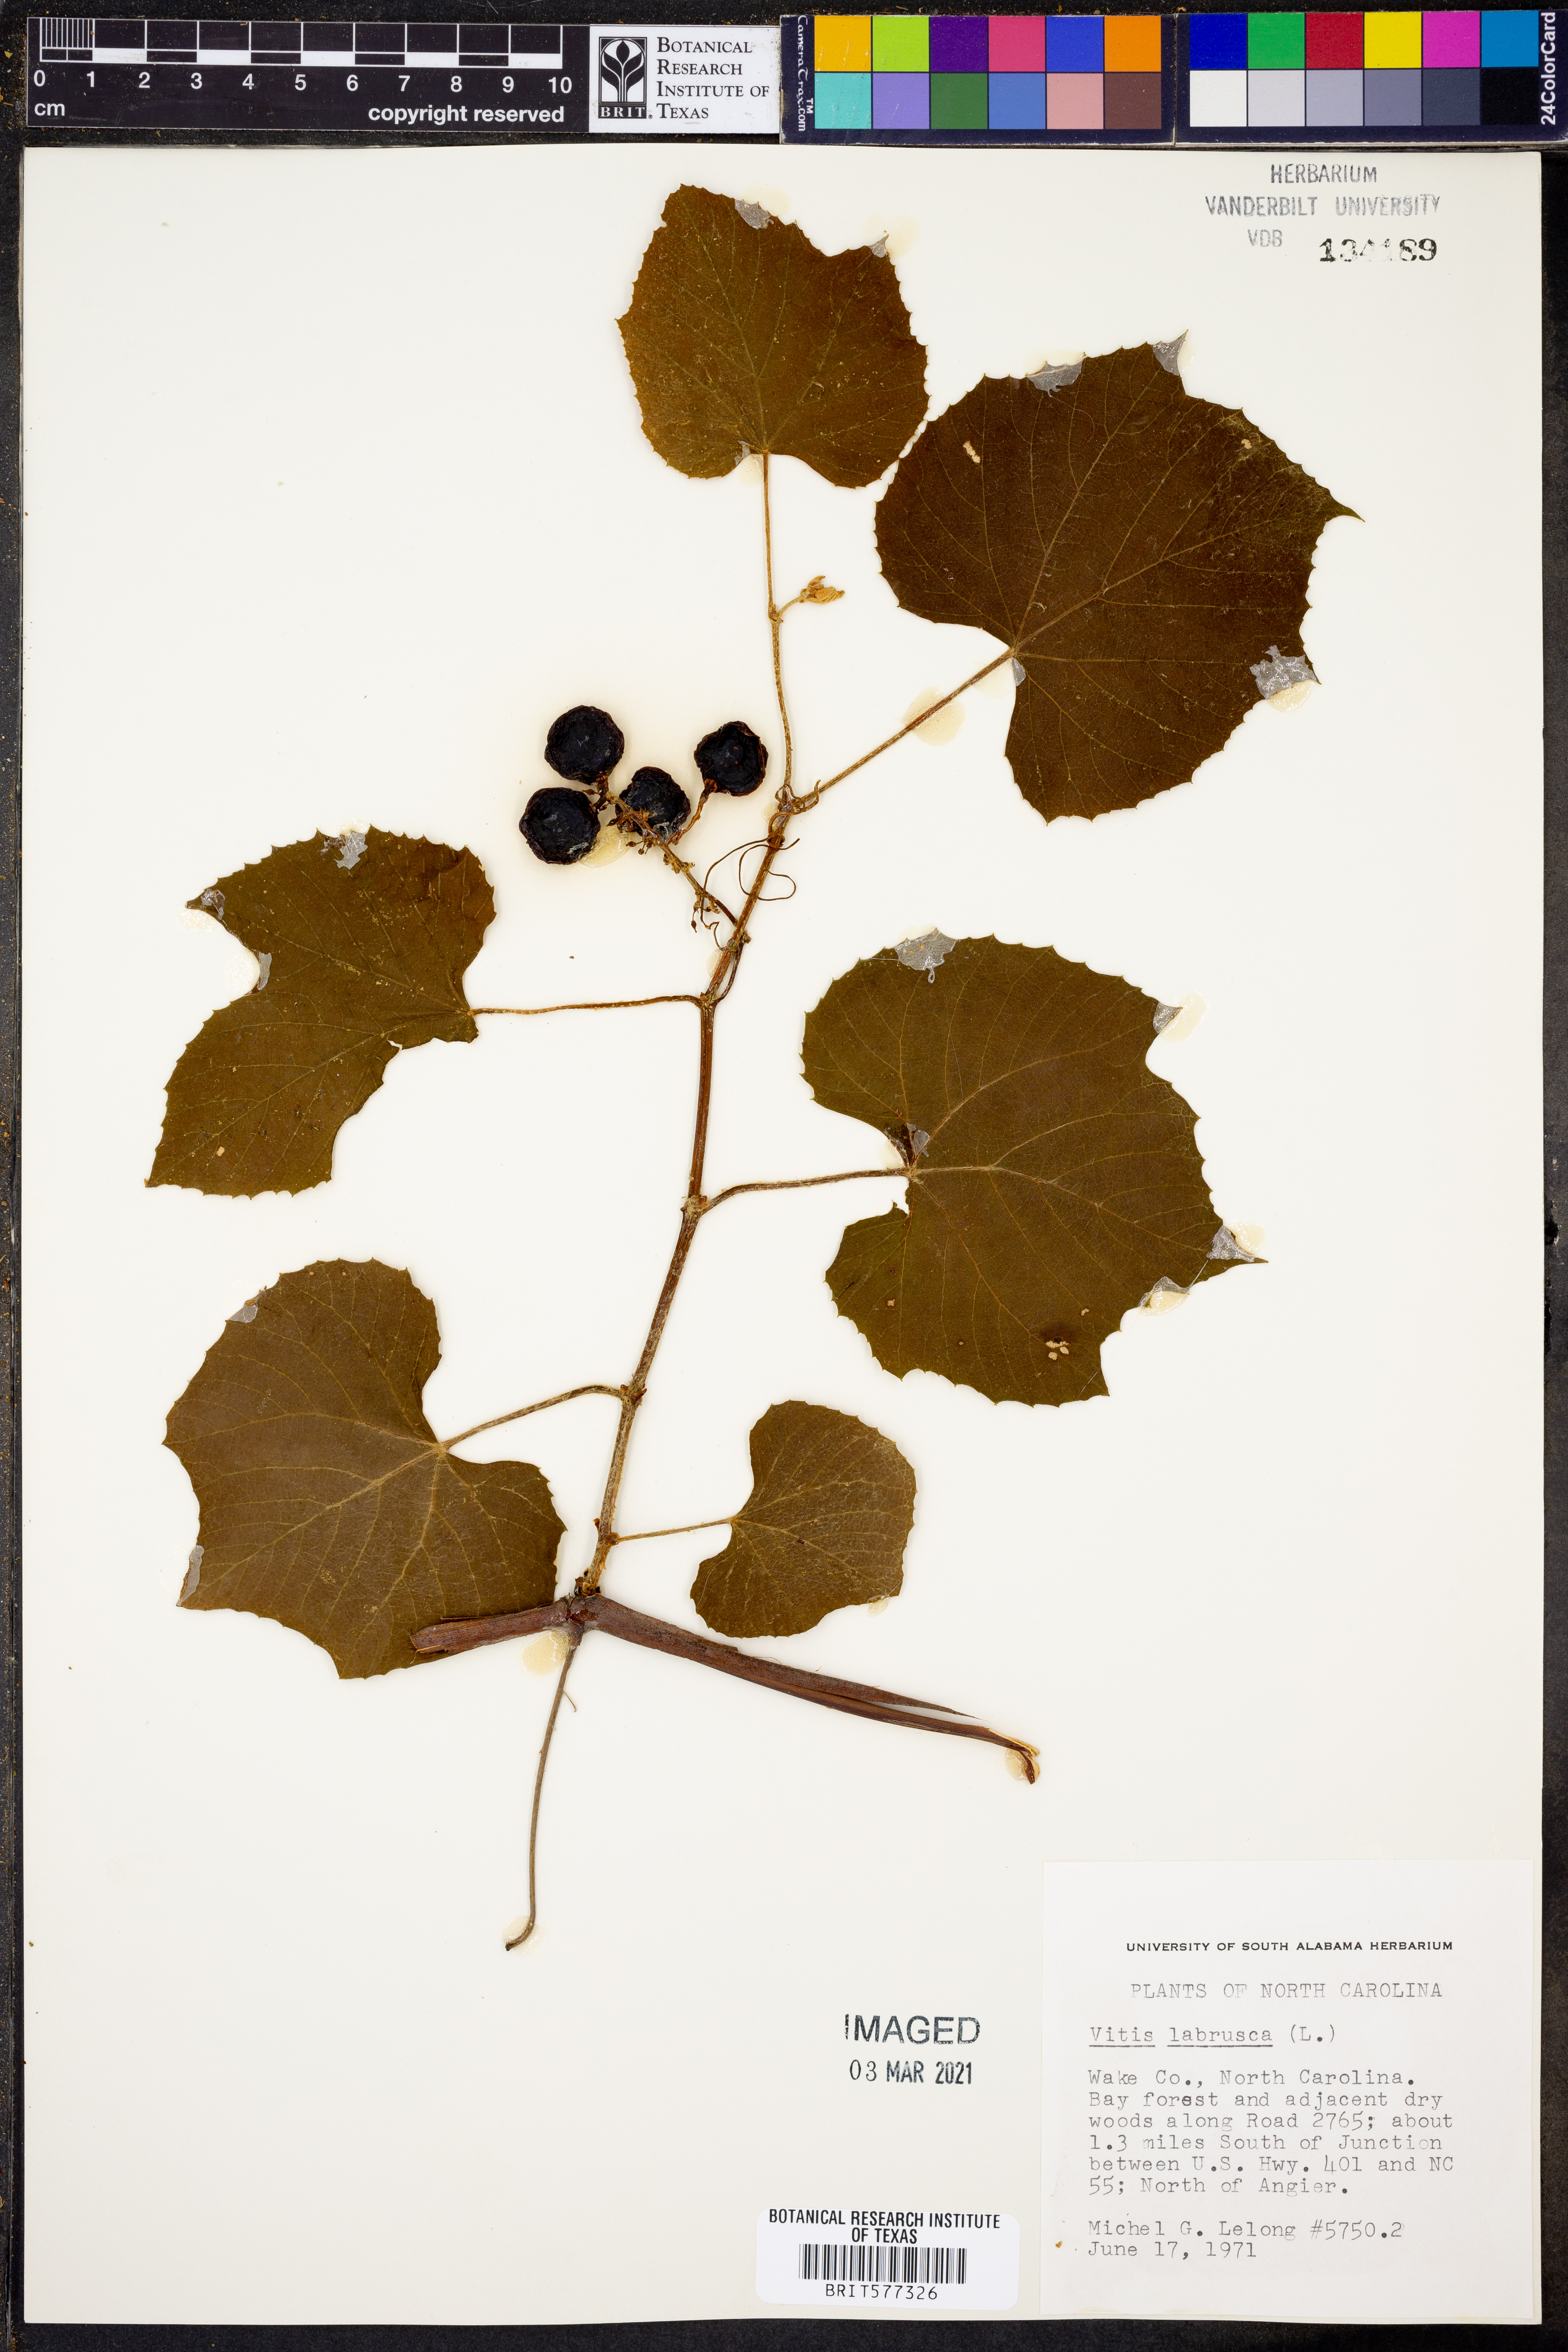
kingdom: Plantae
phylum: Tracheophyta
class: Magnoliopsida
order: Vitales
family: Vitaceae
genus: Vitis
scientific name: Vitis labrusca
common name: Concord grape
